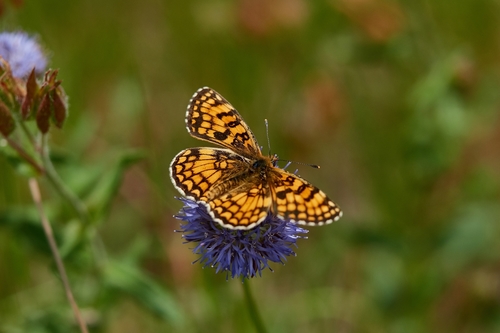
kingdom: Animalia
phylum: Arthropoda
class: Insecta
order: Lepidoptera
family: Nymphalidae
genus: Mellicta
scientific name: Mellicta athalia
